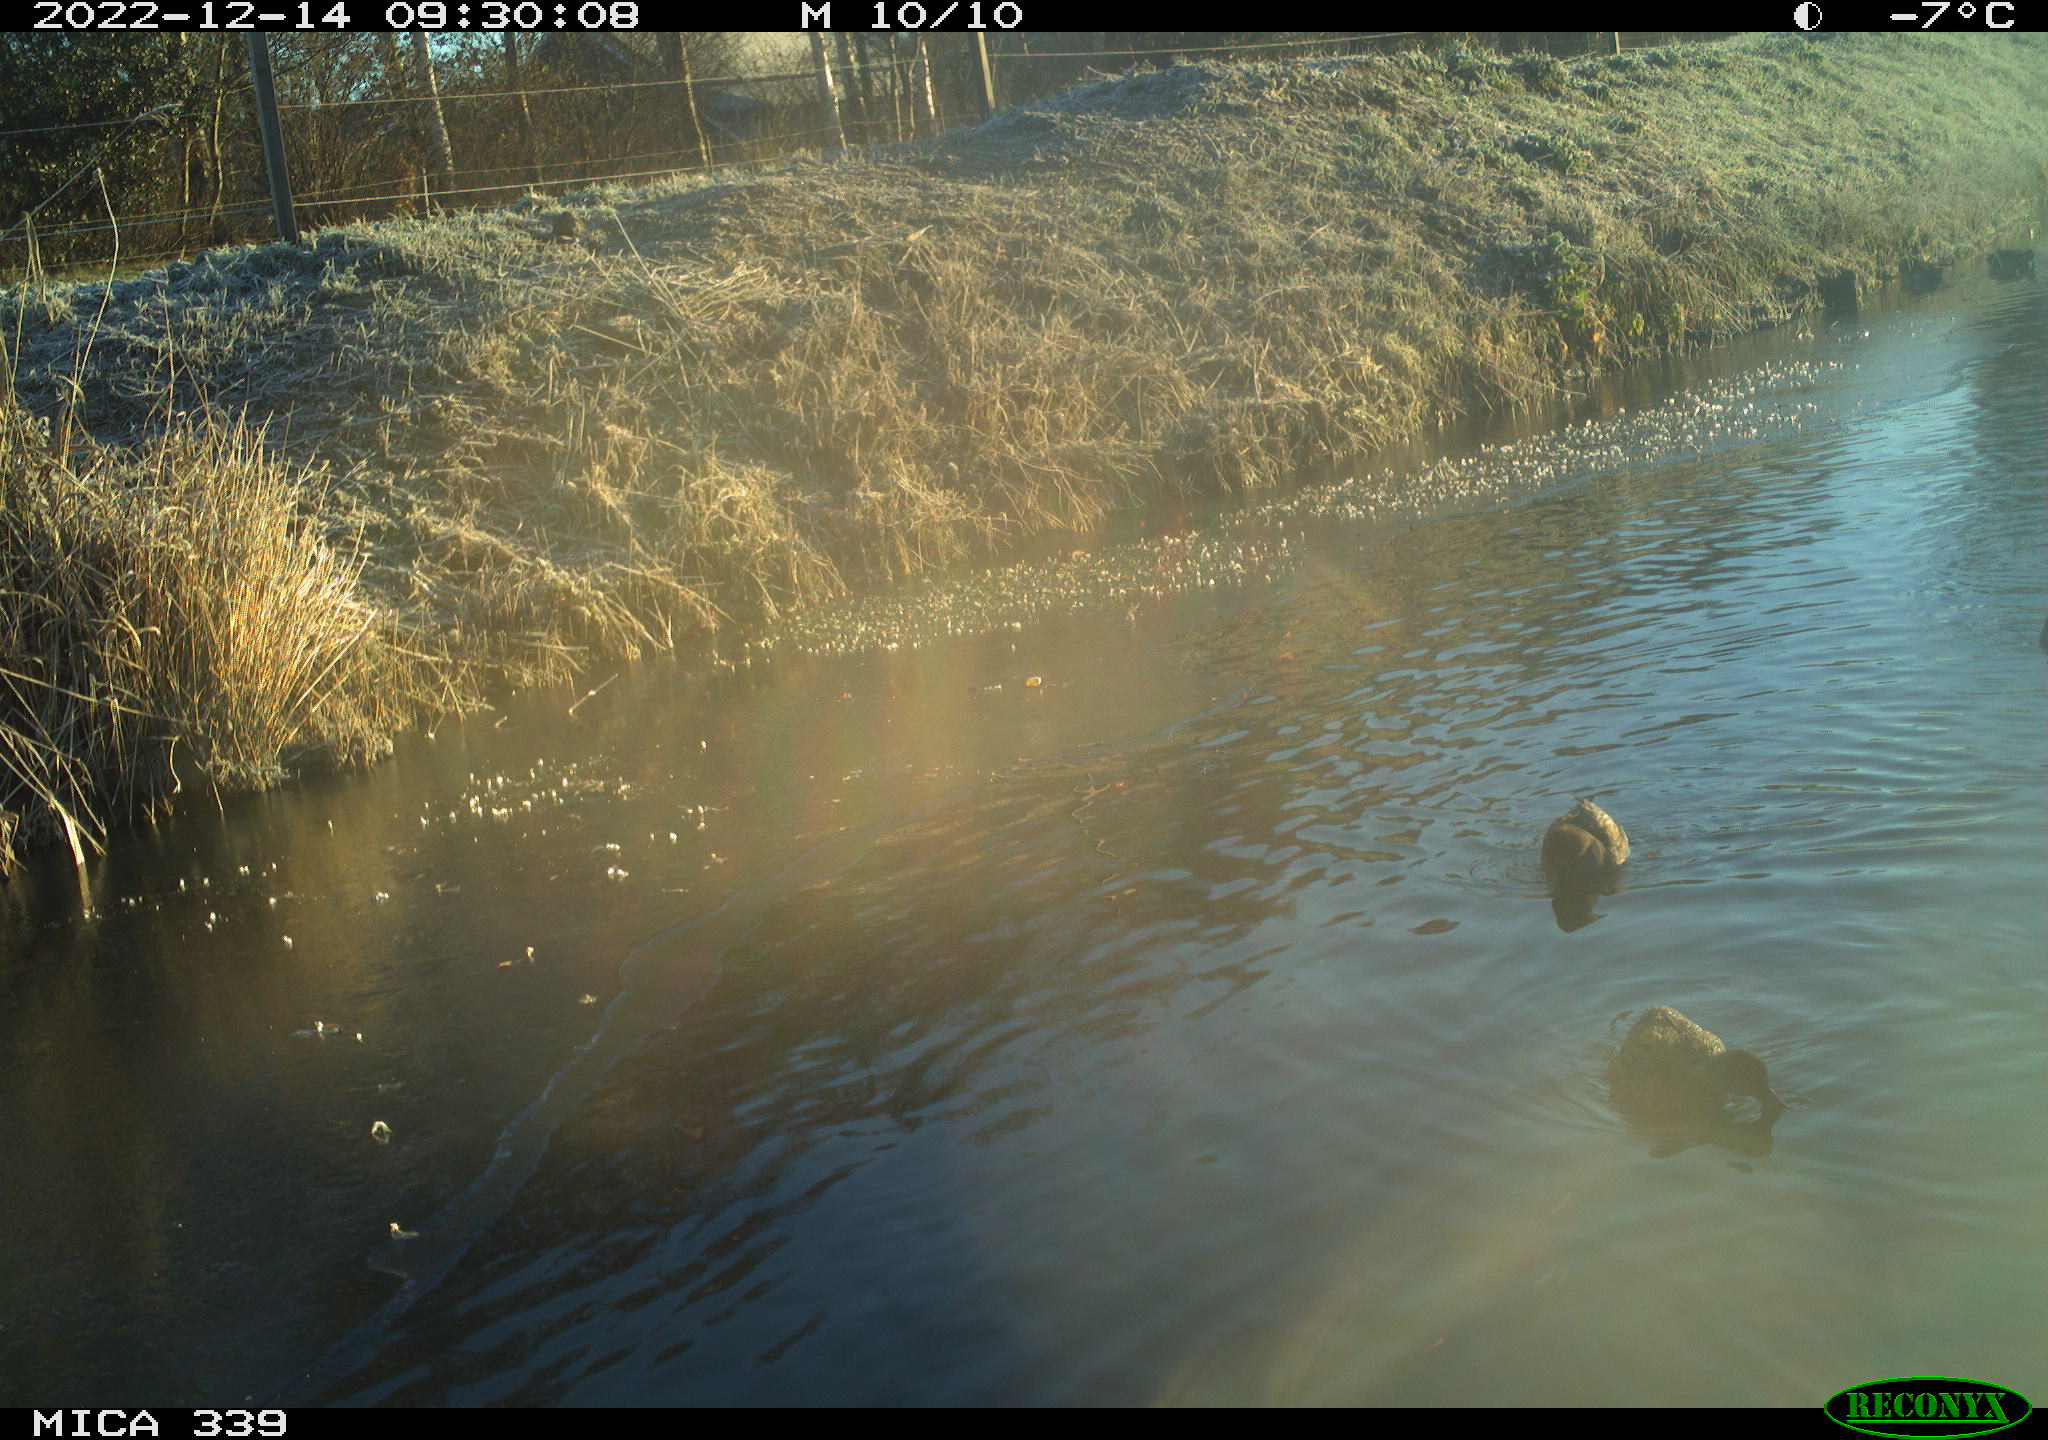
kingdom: Animalia
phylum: Chordata
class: Aves
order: Anseriformes
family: Anatidae
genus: Anas
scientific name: Anas
